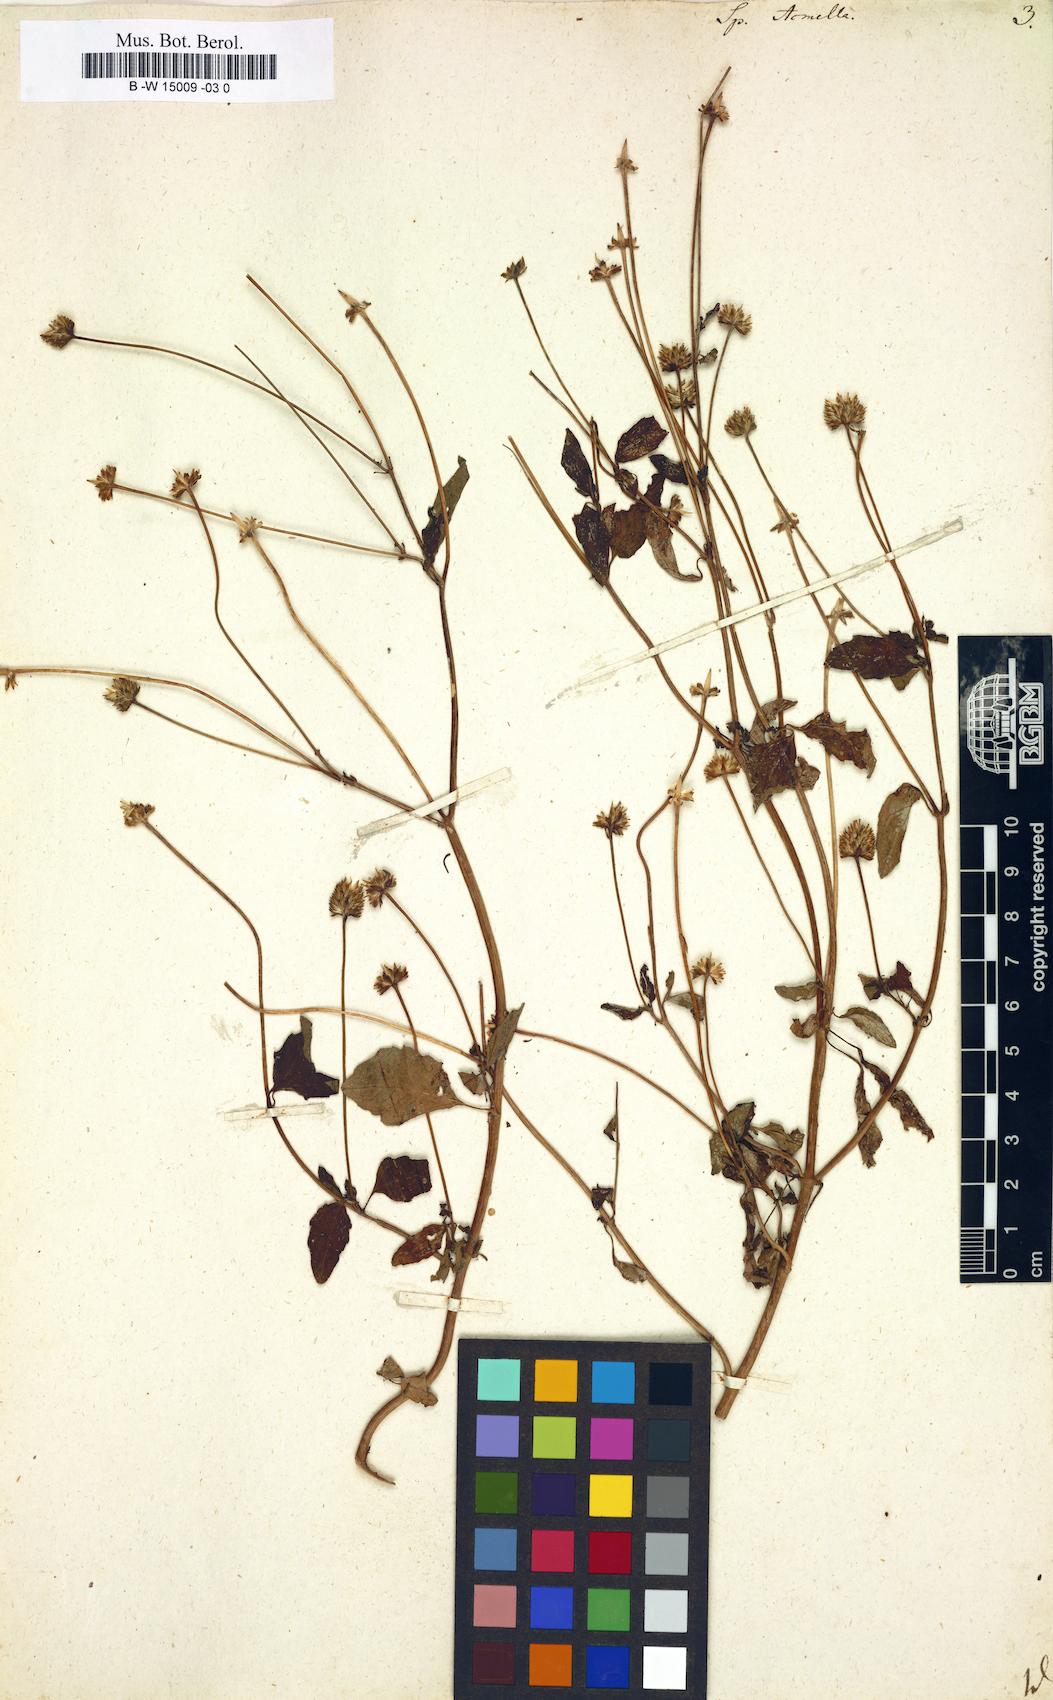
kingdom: Plantae
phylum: Tracheophyta
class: Magnoliopsida
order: Asterales
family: Asteraceae
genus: Spilanthes
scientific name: Spilanthes acmella
